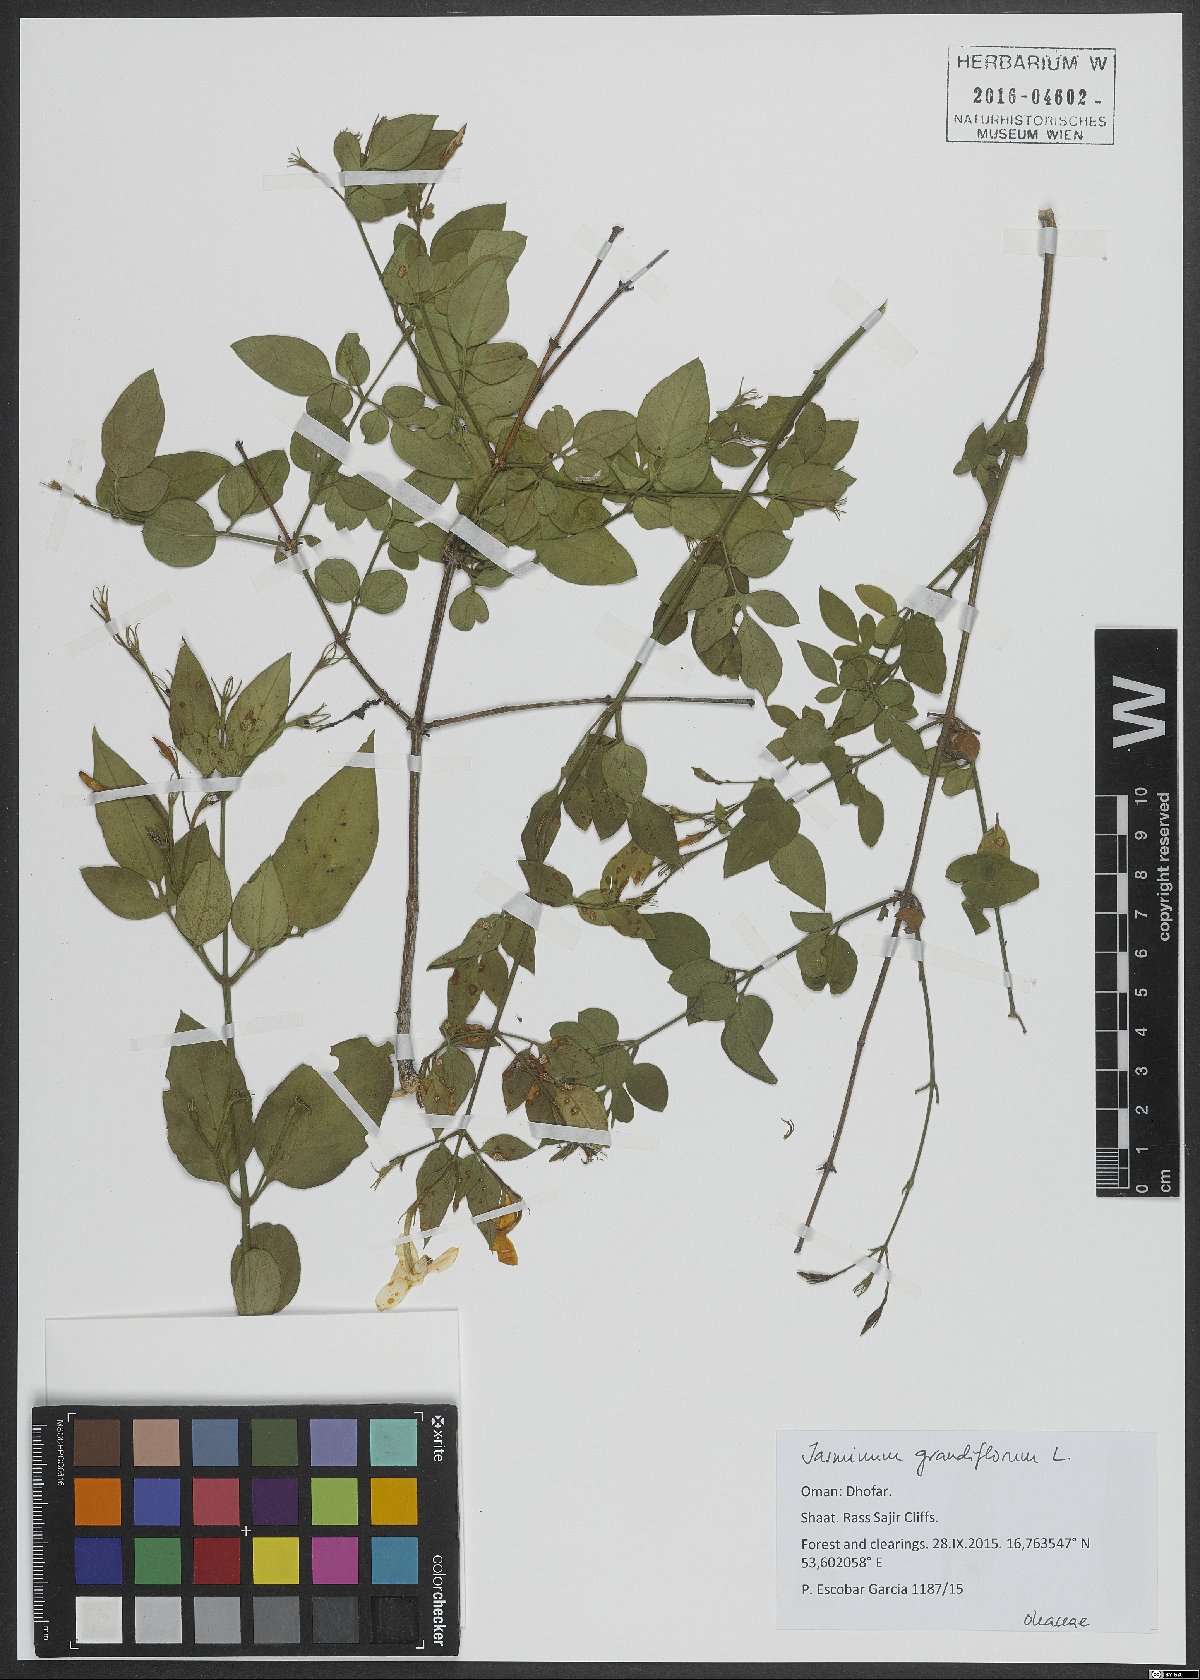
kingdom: Plantae
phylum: Tracheophyta
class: Magnoliopsida
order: Lamiales
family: Oleaceae
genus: Jasminum
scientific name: Jasminum grandiflorum
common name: Catalonian jasmine
